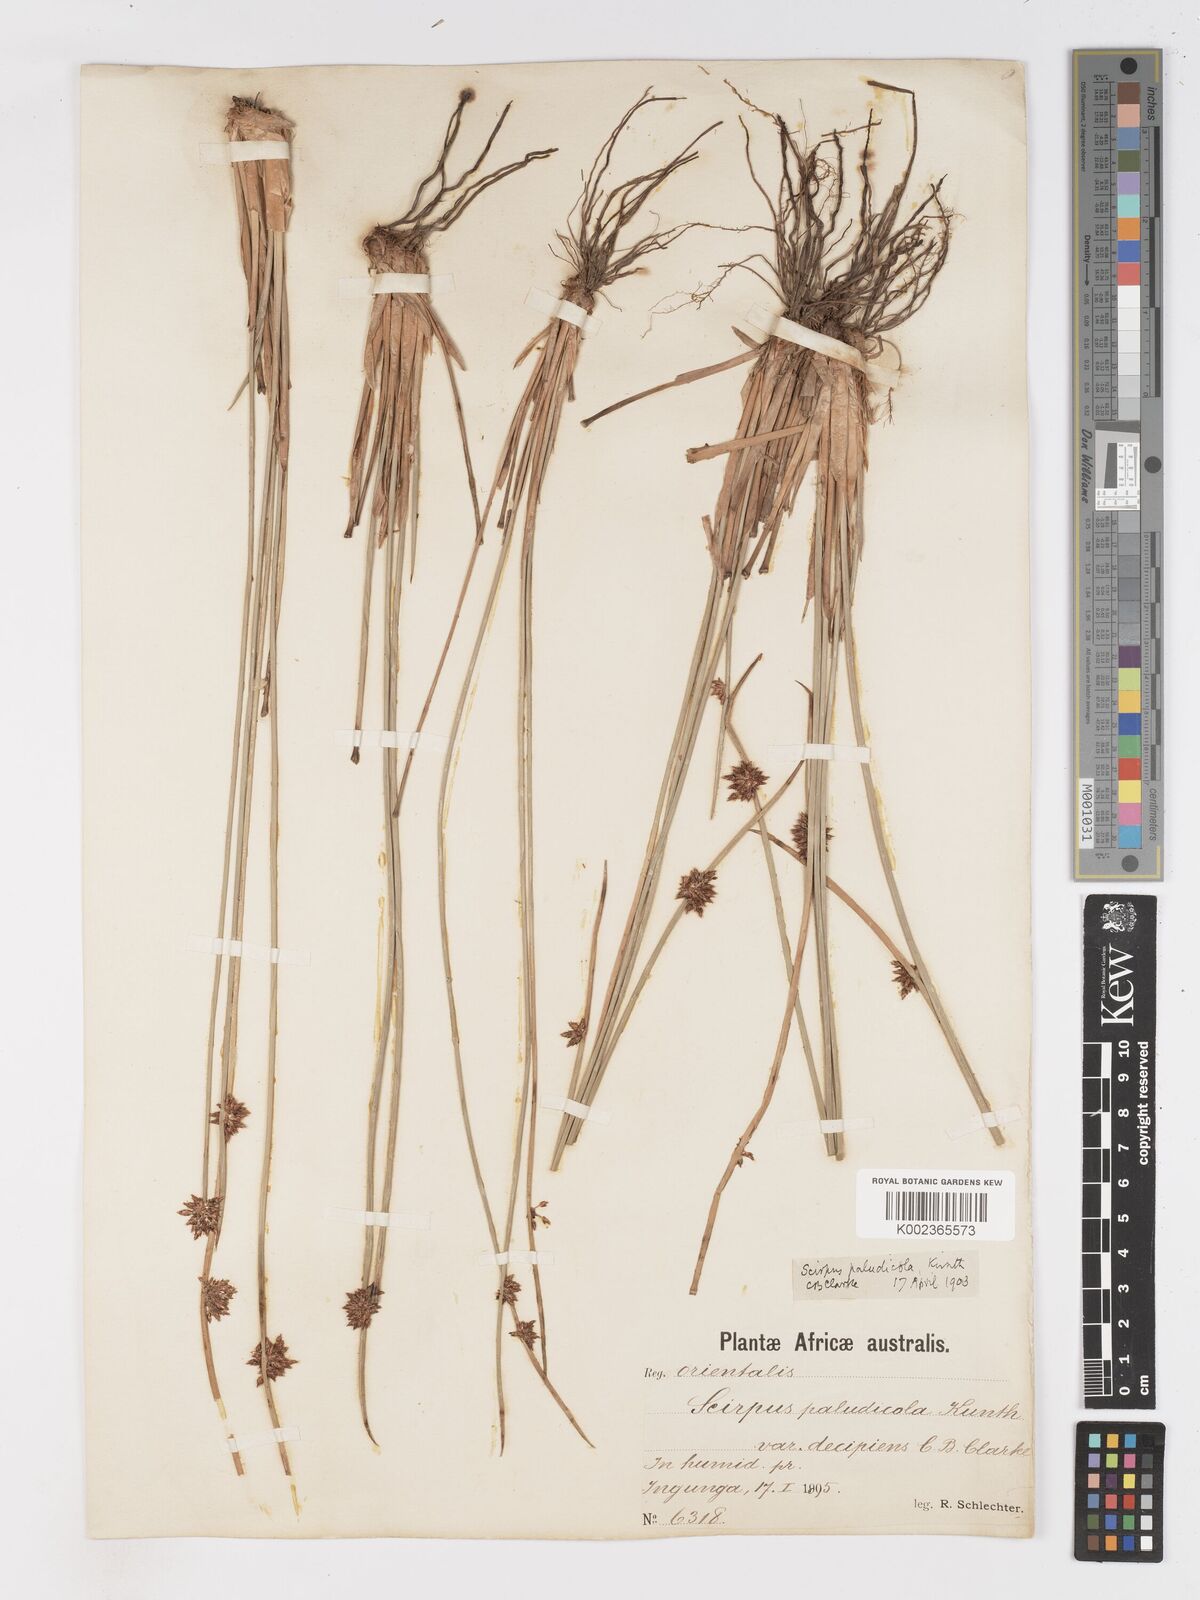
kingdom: Plantae
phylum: Tracheophyta
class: Liliopsida
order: Poales
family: Cyperaceae
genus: Schoenoplectiella
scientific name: Schoenoplectiella paludicola
